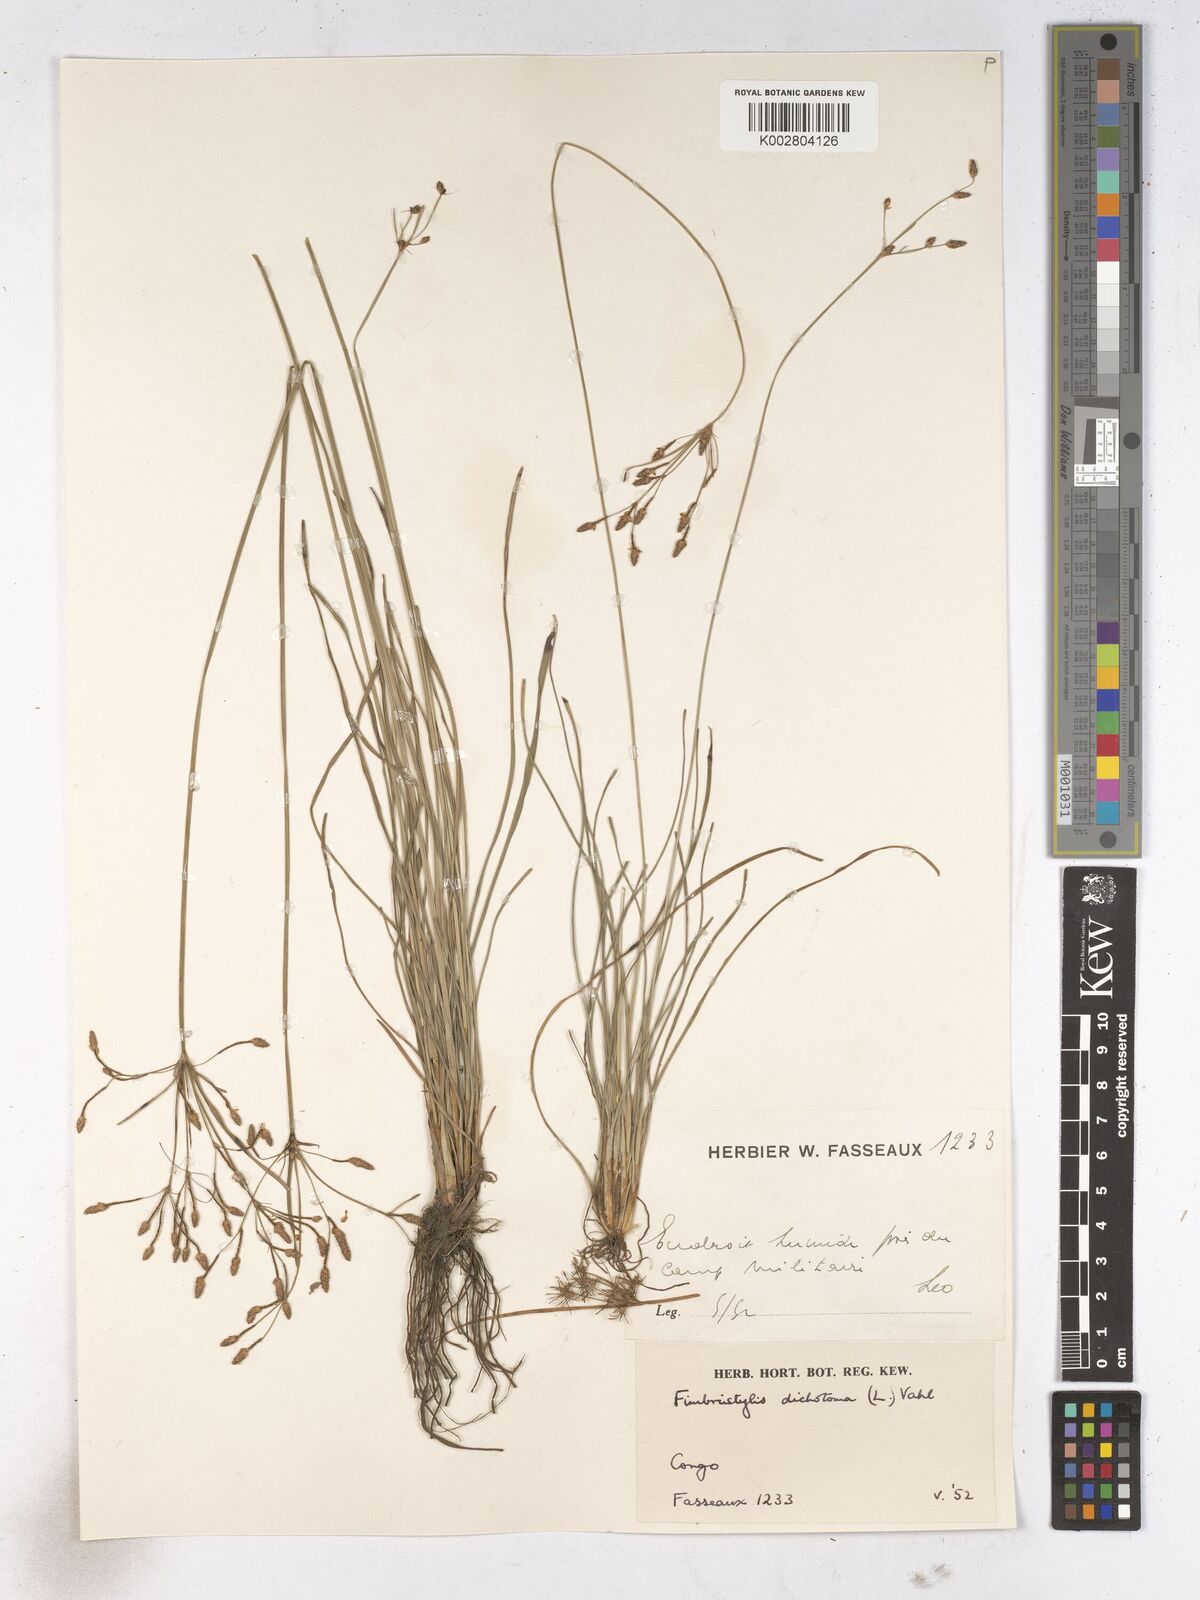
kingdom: Plantae
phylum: Tracheophyta
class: Liliopsida
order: Poales
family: Cyperaceae
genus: Fimbristylis
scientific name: Fimbristylis dichotoma
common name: Forked fimbry
